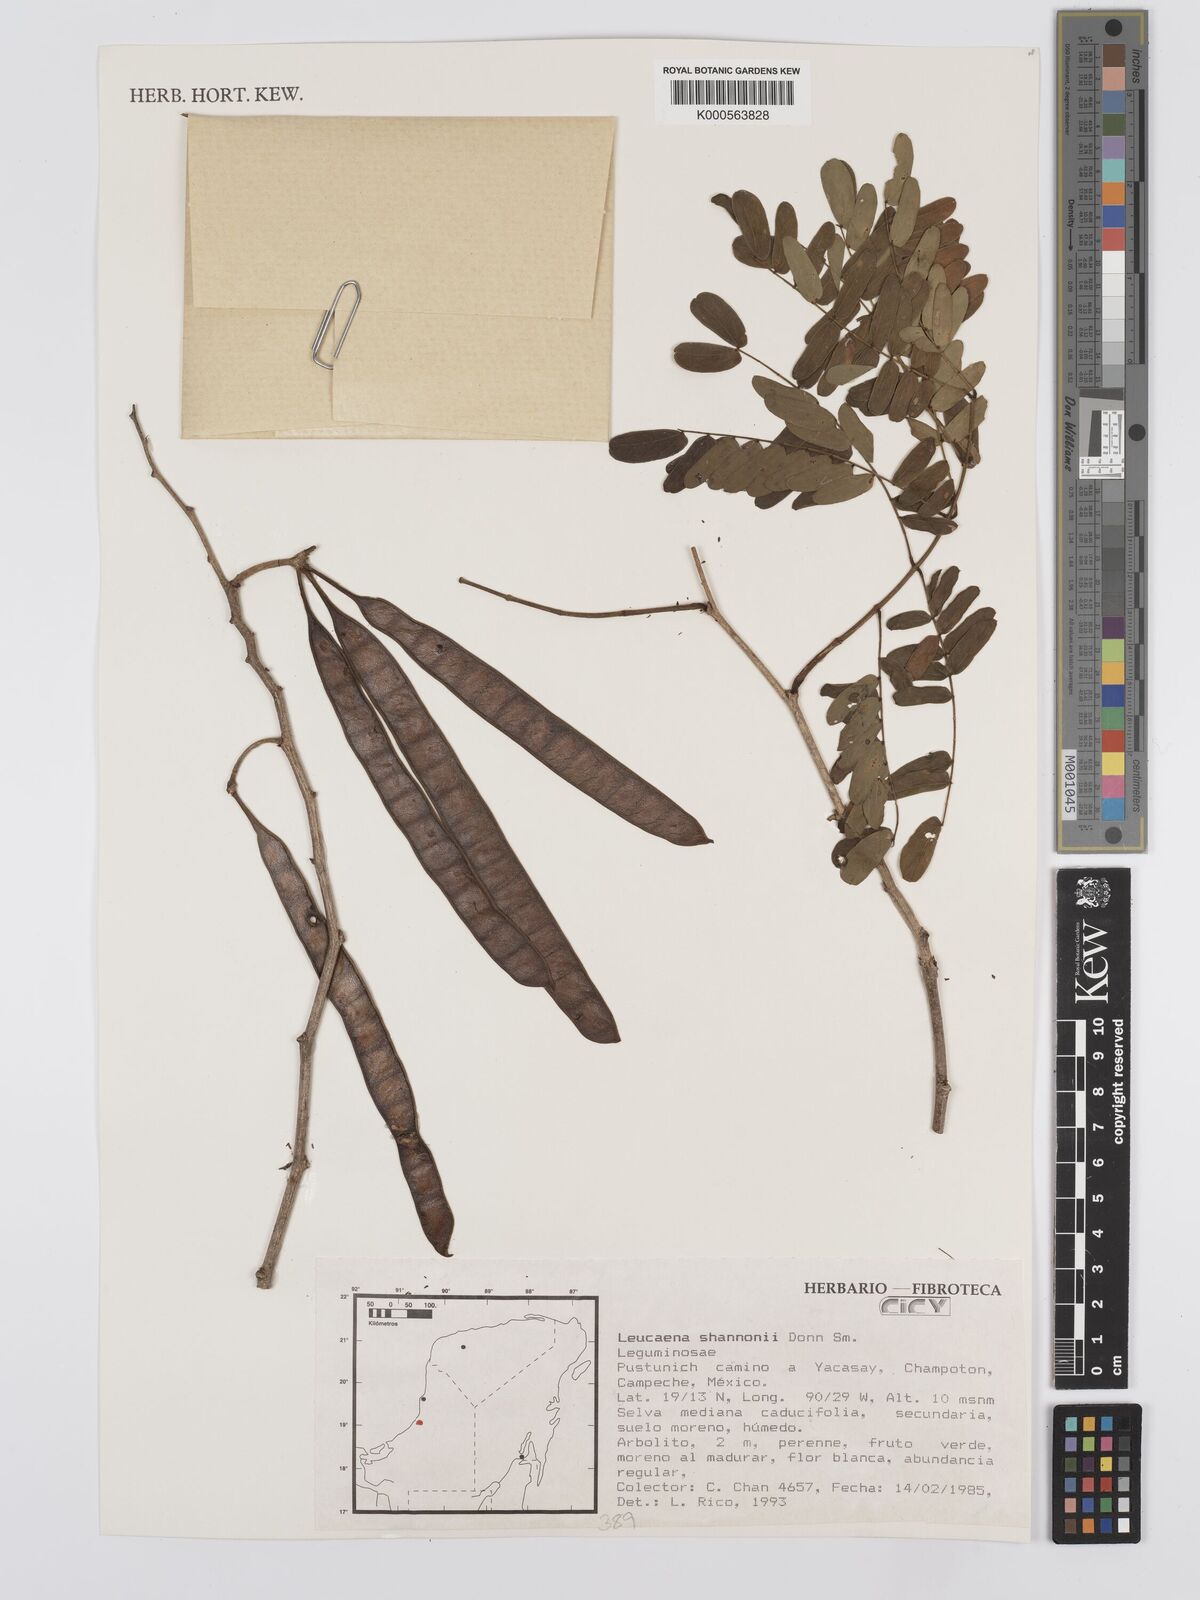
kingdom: Plantae
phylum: Tracheophyta
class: Magnoliopsida
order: Fabales
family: Fabaceae
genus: Leucaena
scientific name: Leucaena shannonii
